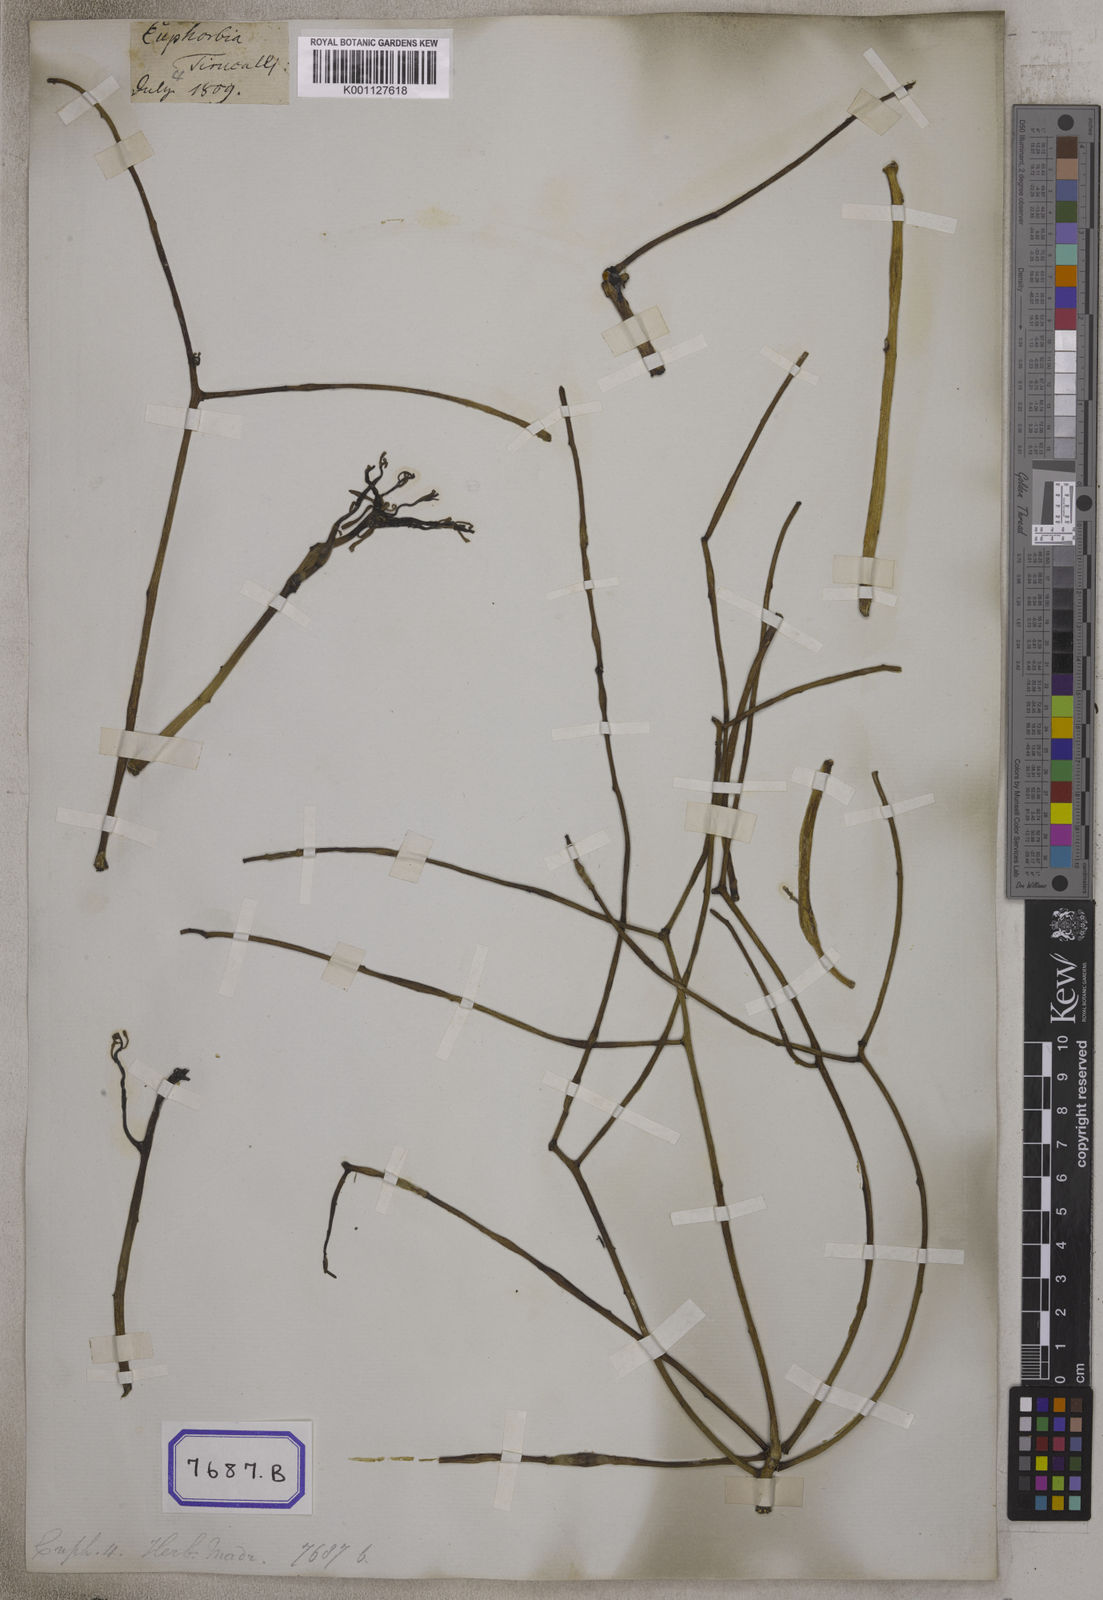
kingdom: Plantae
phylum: Tracheophyta
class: Magnoliopsida
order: Malpighiales
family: Euphorbiaceae
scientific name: Euphorbiaceae
